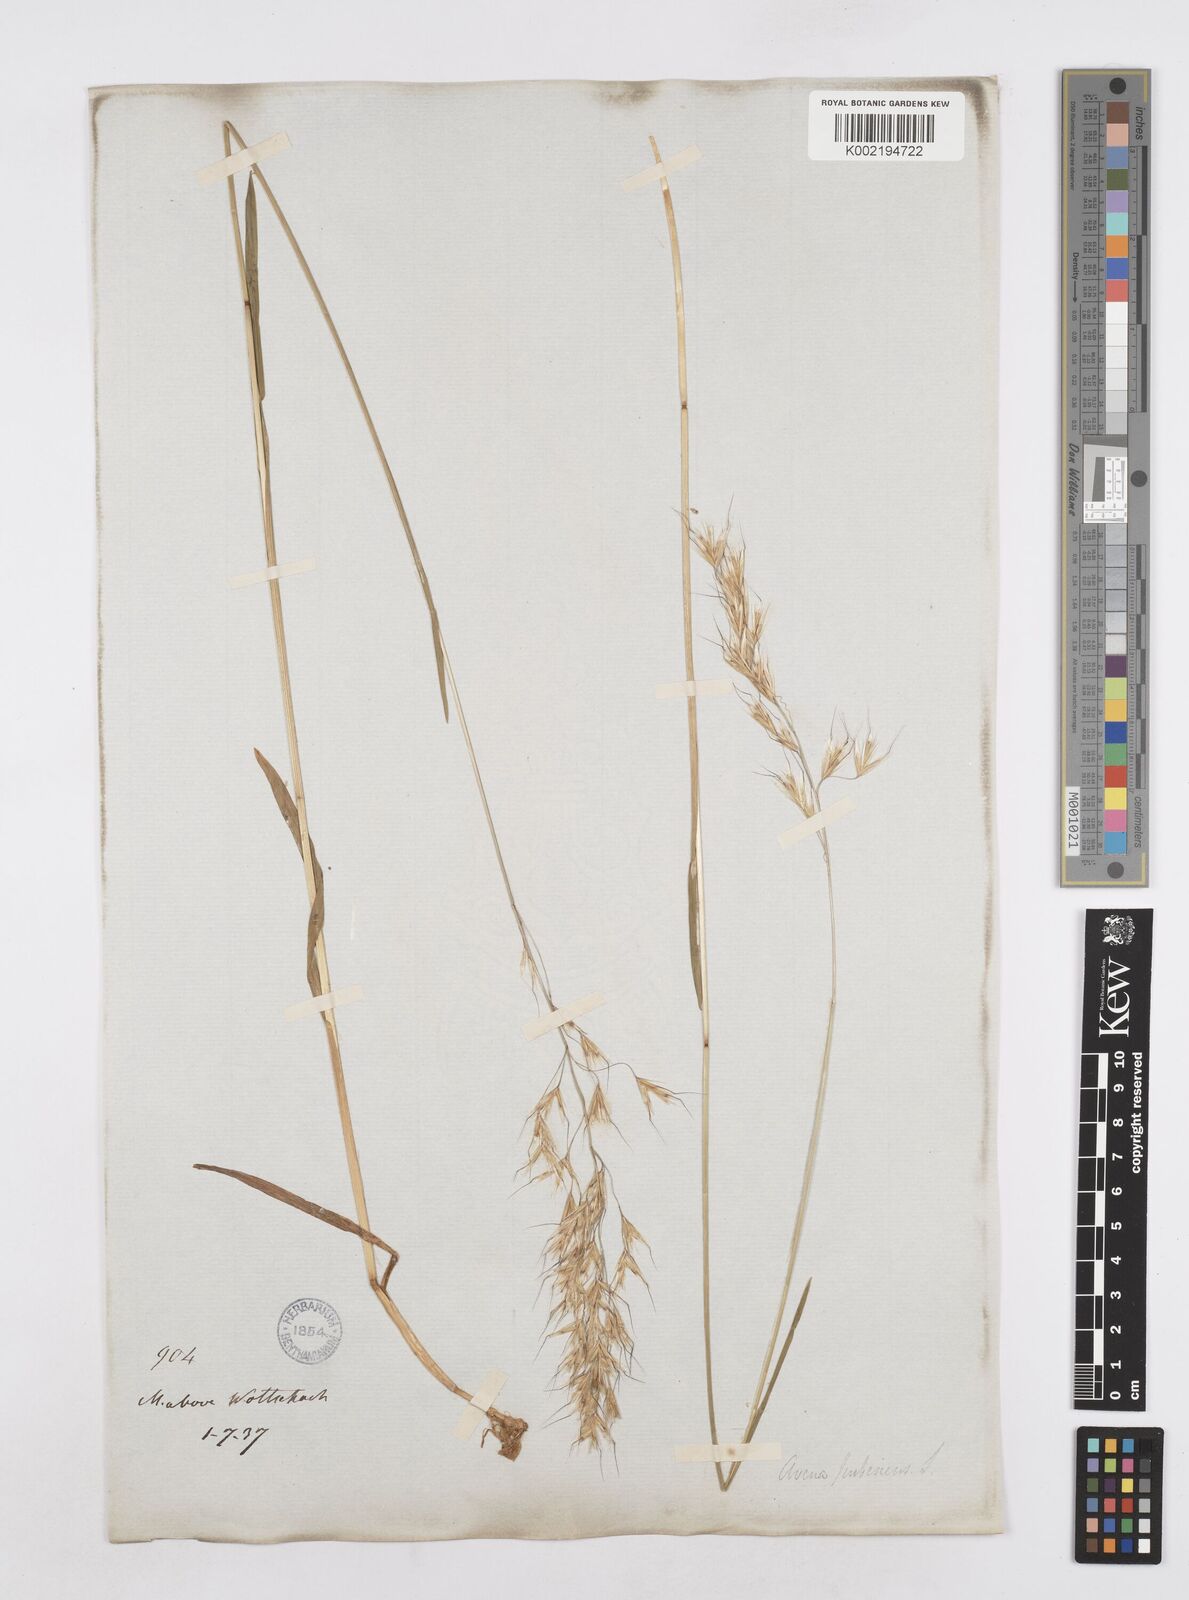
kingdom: Plantae
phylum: Tracheophyta
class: Liliopsida
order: Poales
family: Poaceae
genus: Avenula
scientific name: Avenula pubescens
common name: Downy alpine oatgrass
